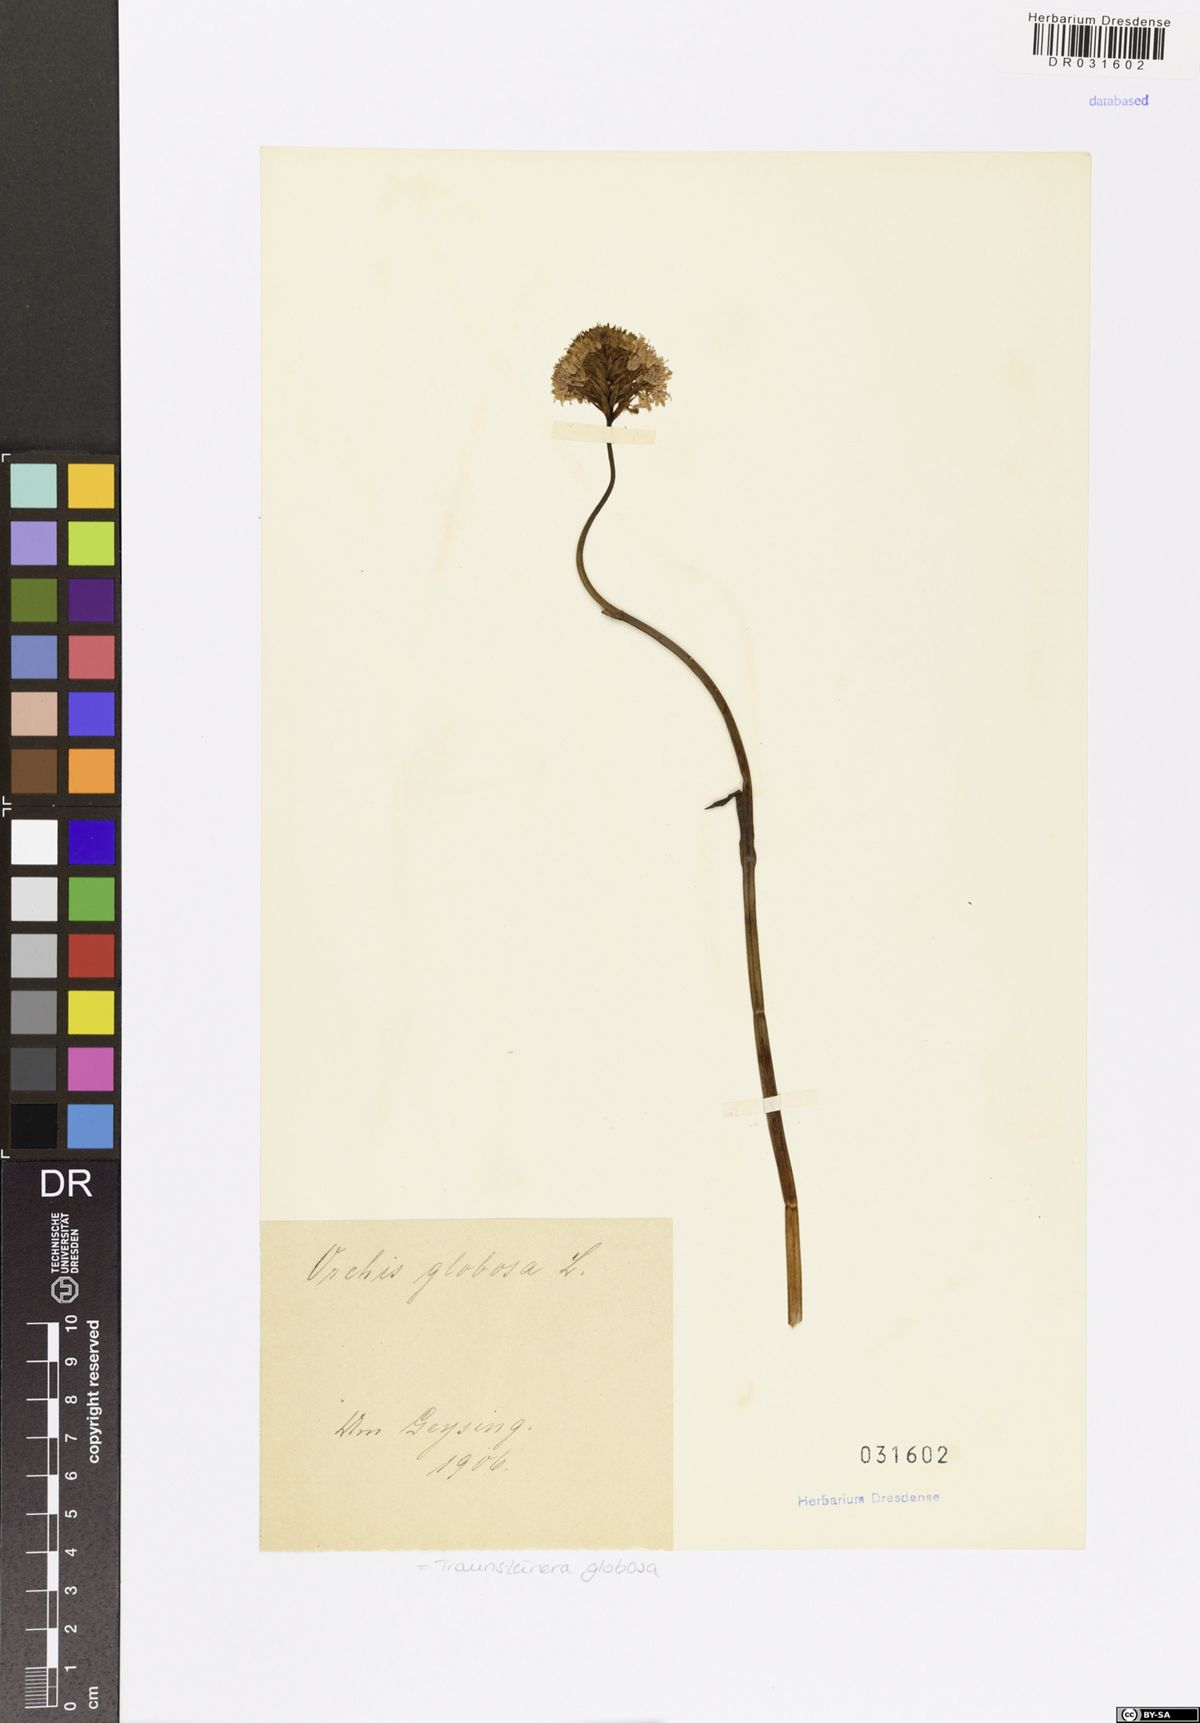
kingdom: Plantae
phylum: Tracheophyta
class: Liliopsida
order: Asparagales
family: Orchidaceae
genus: Traunsteinera
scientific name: Traunsteinera globosa
